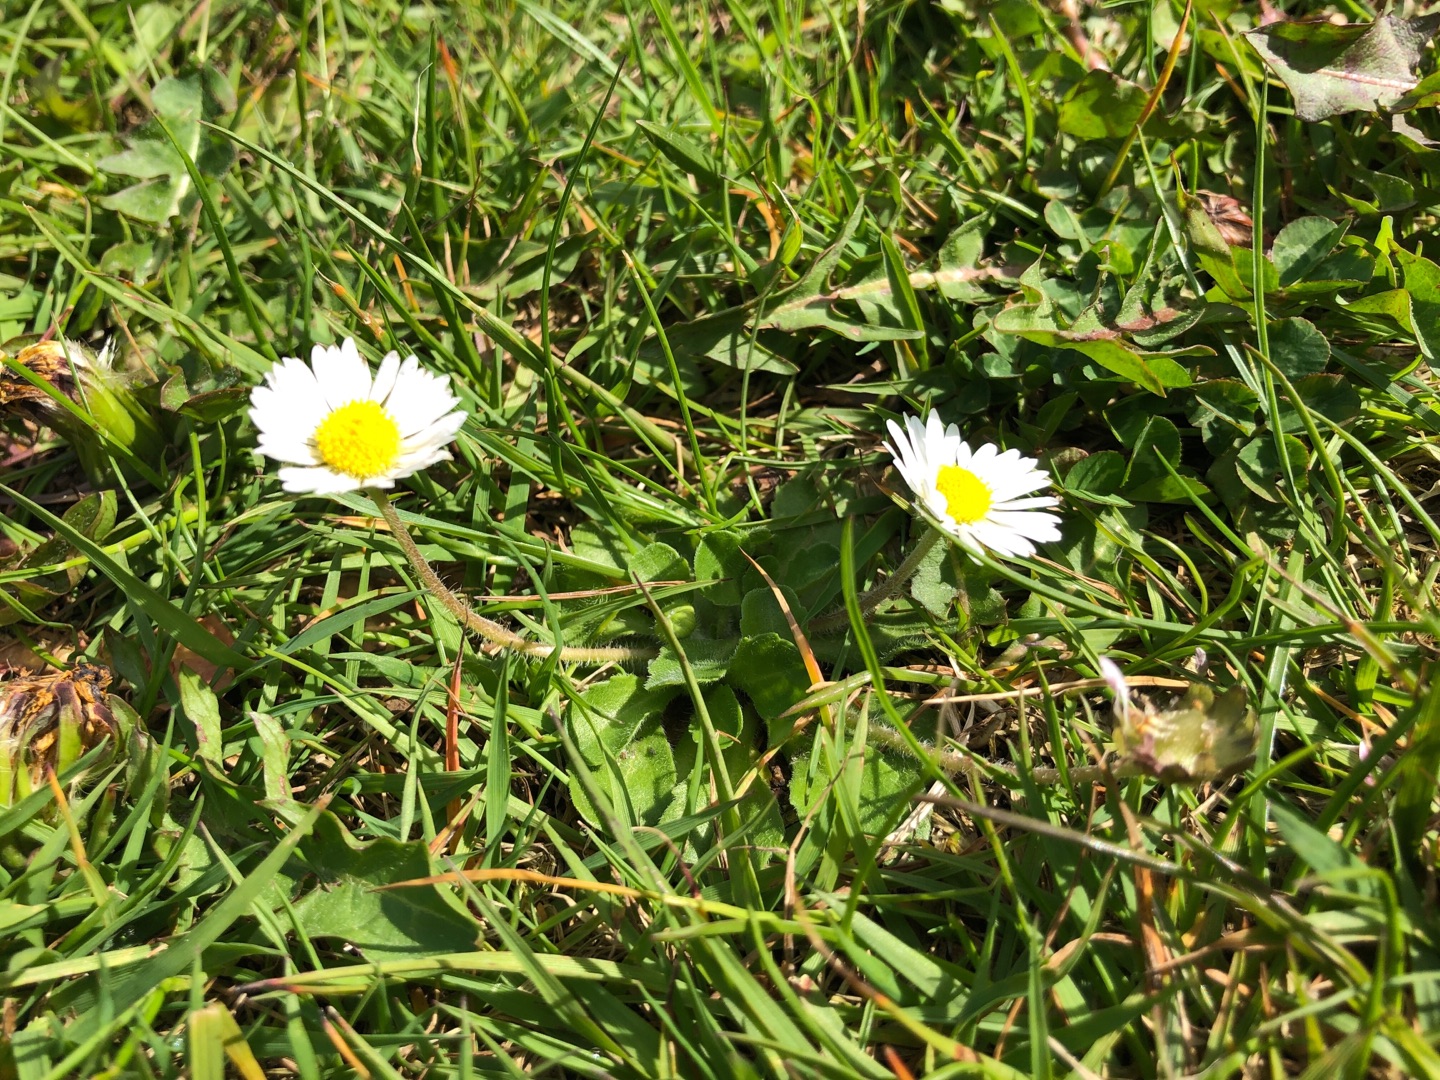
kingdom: Plantae
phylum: Tracheophyta
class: Magnoliopsida
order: Asterales
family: Asteraceae
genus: Bellis
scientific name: Bellis perennis
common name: Tusindfryd
